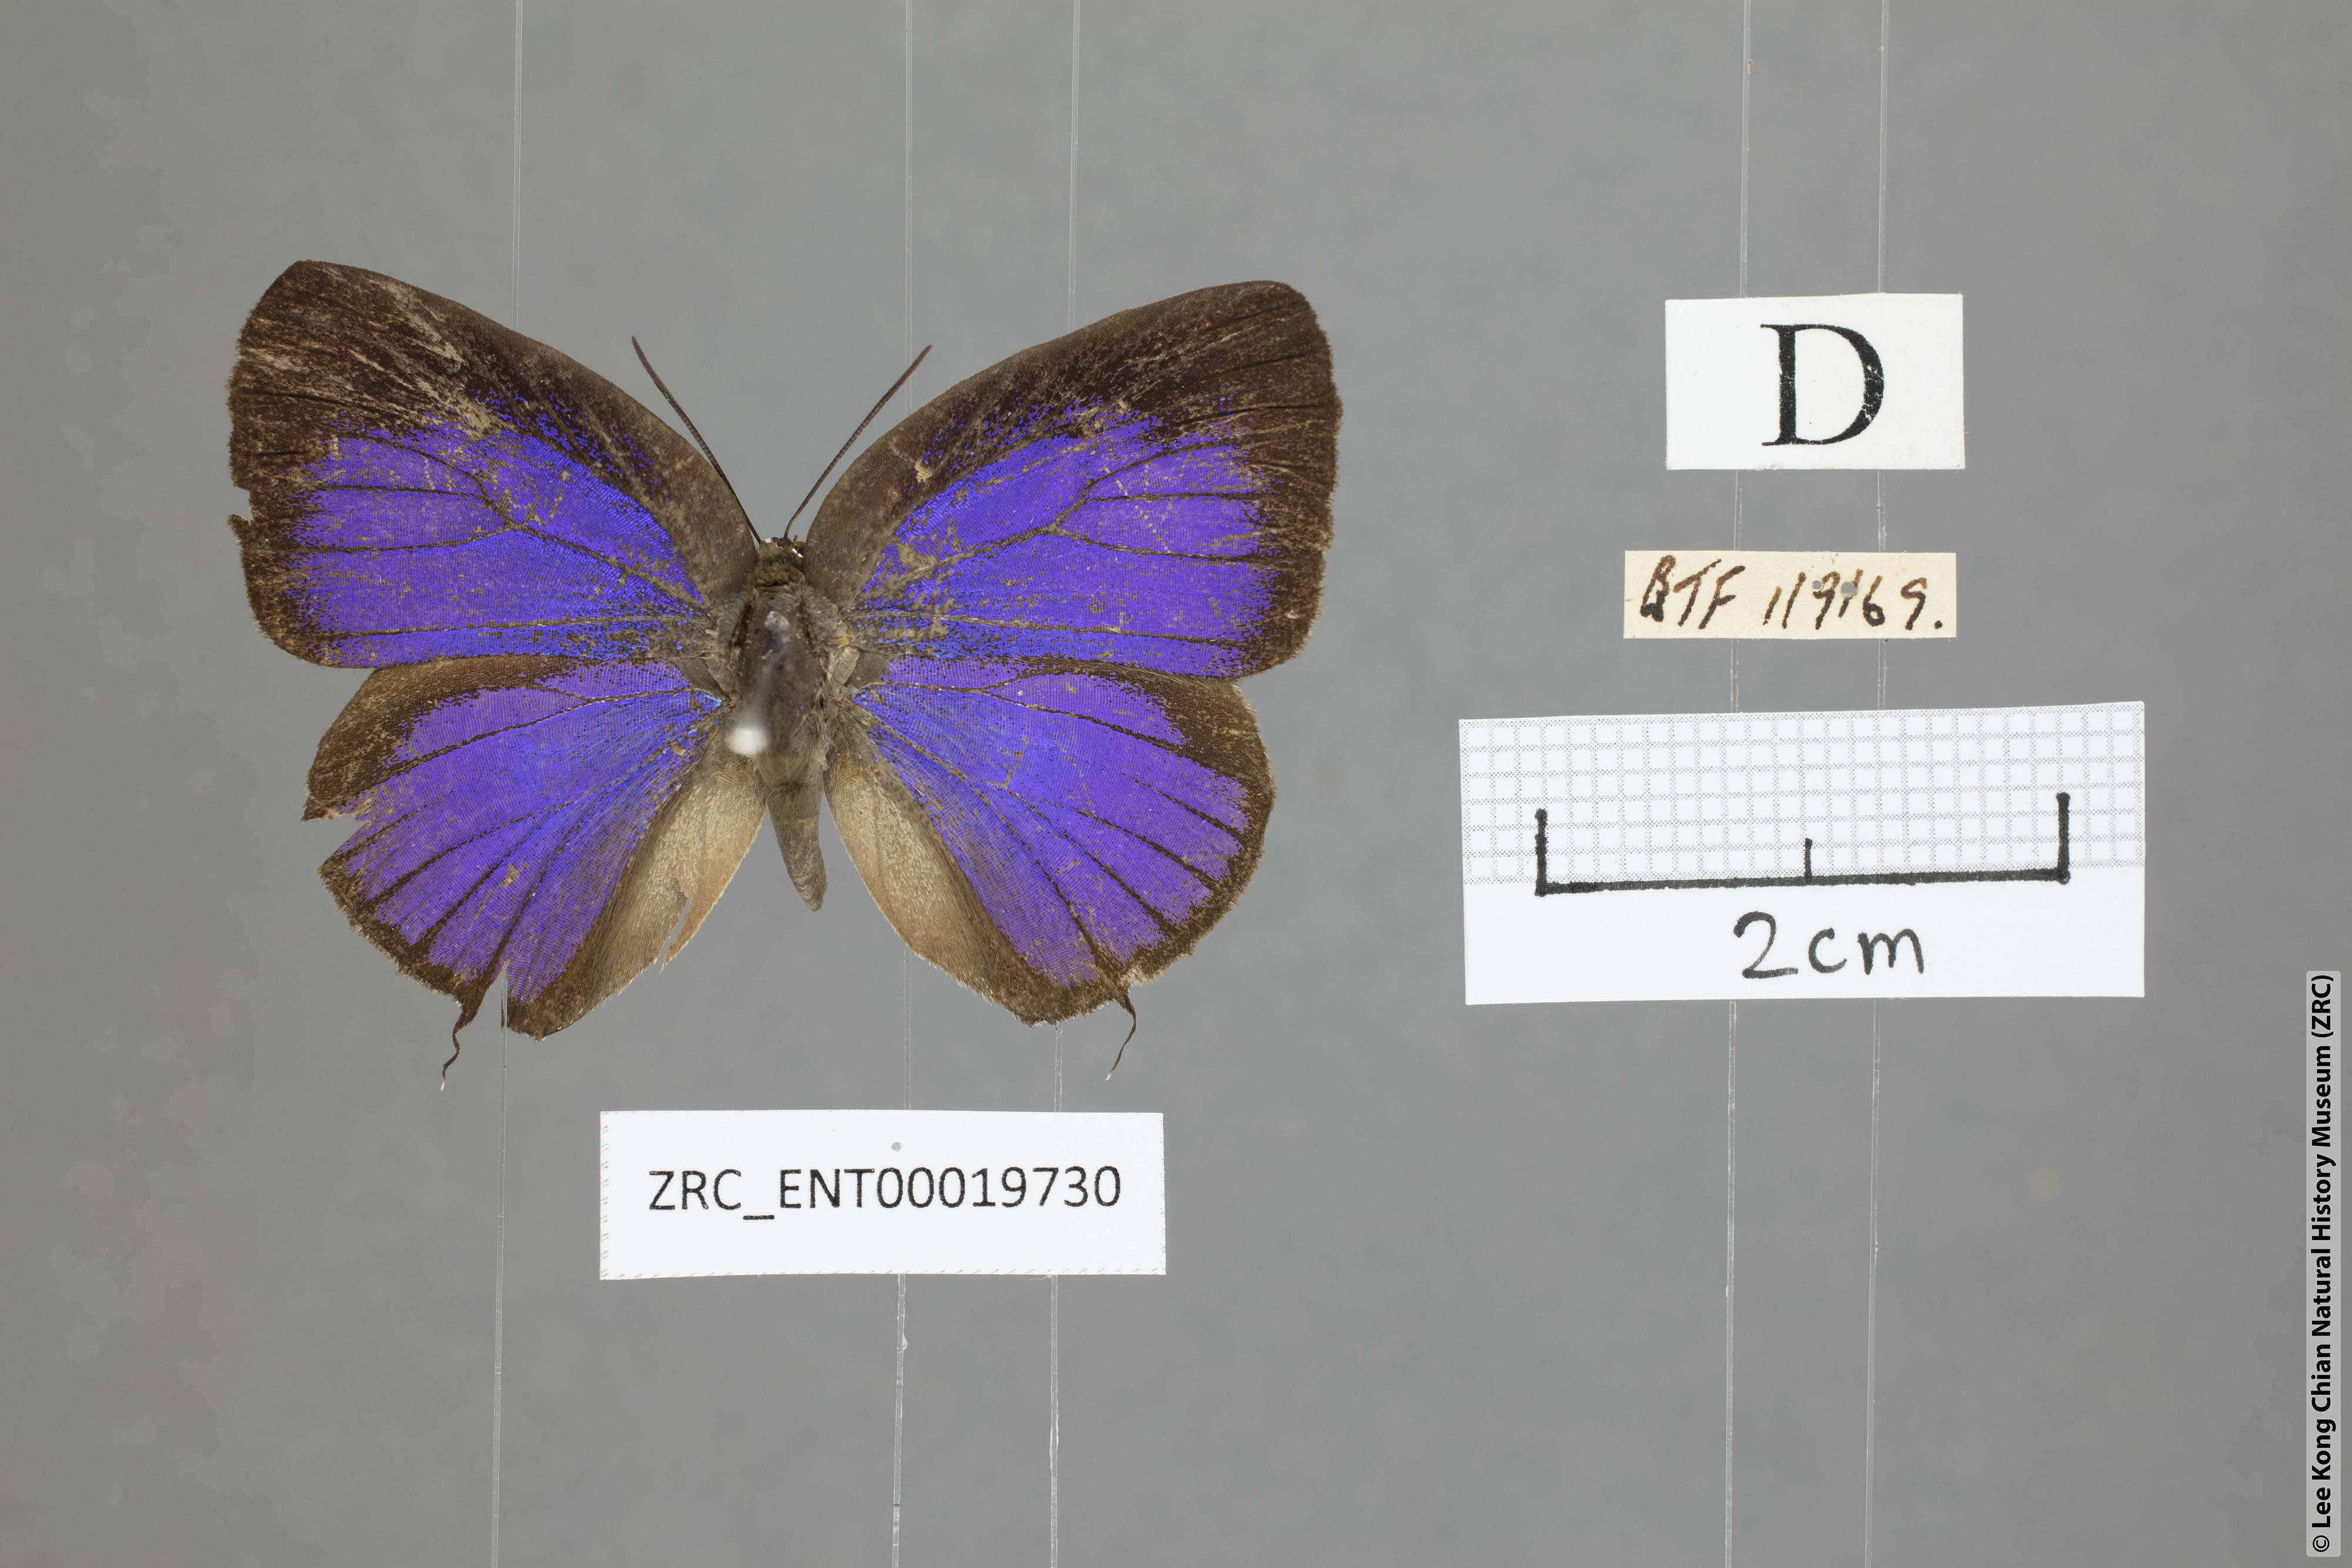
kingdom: Animalia
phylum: Arthropoda
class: Insecta
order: Lepidoptera
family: Lycaenidae
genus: Arhopala
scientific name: Arhopala myrzala
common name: Malayan oakblue
